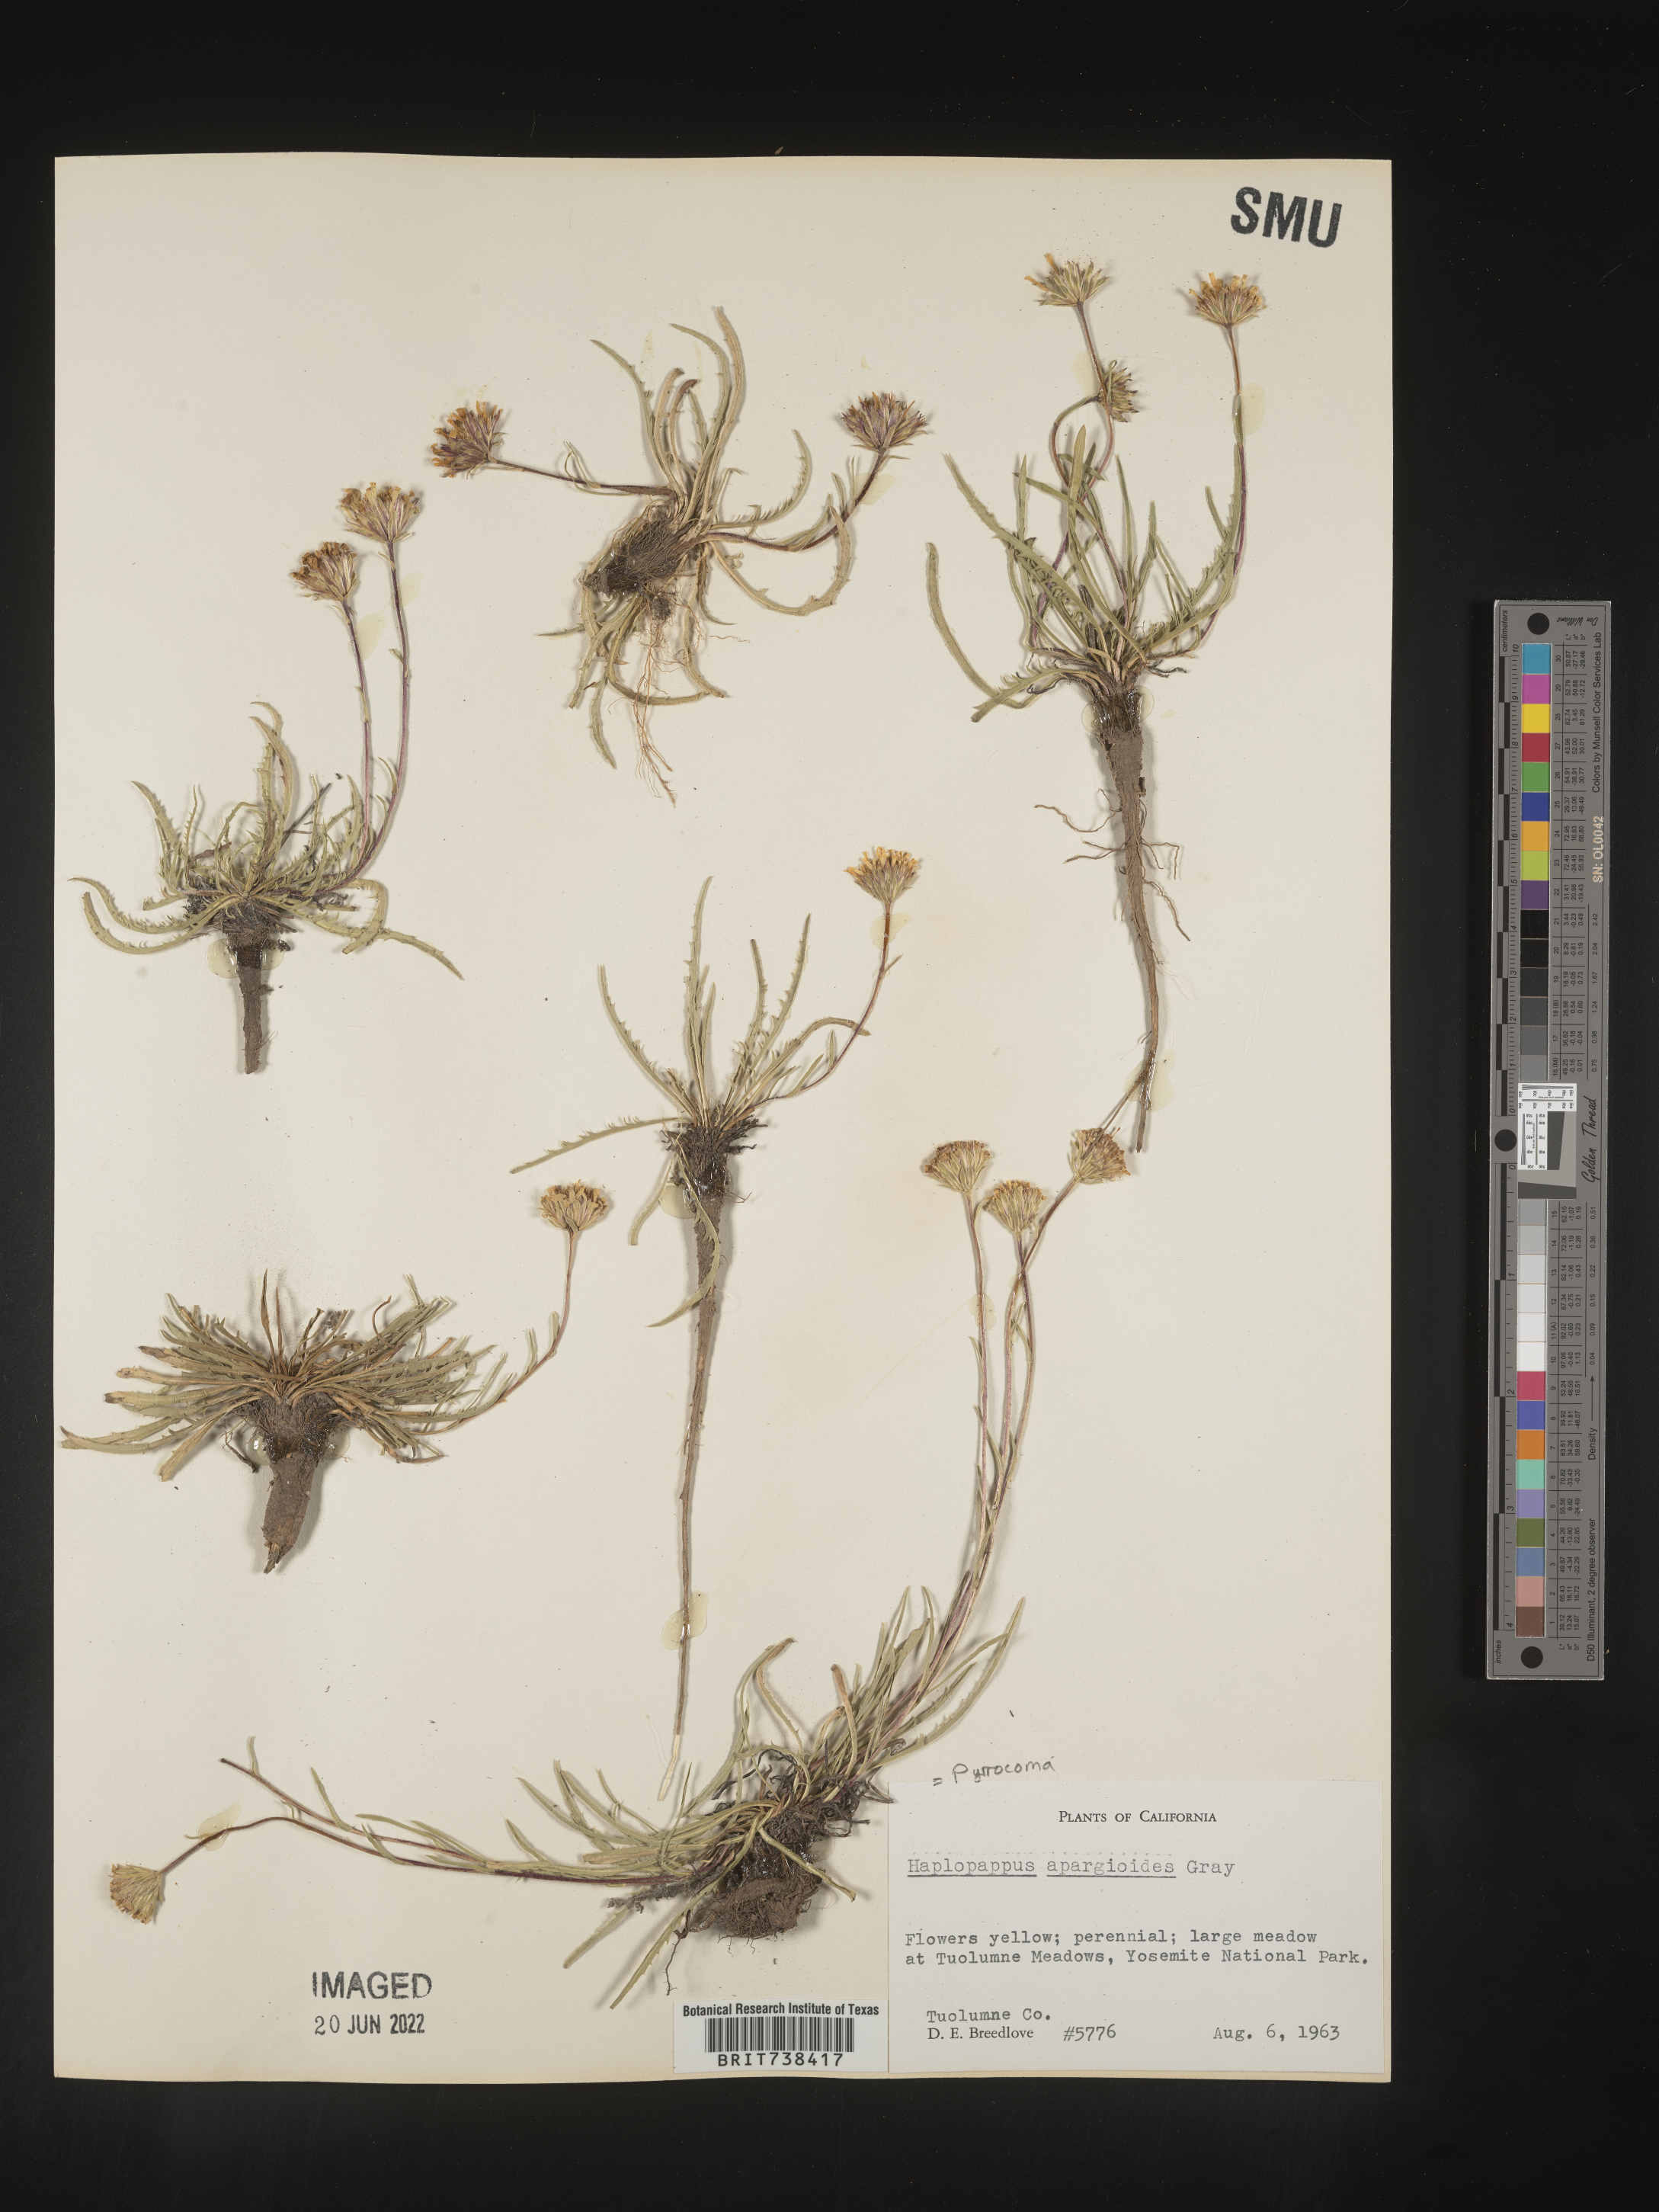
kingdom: Plantae
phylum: Tracheophyta
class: Magnoliopsida
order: Asterales
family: Asteraceae
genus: Pyrrocoma
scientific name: Pyrrocoma apargioides
